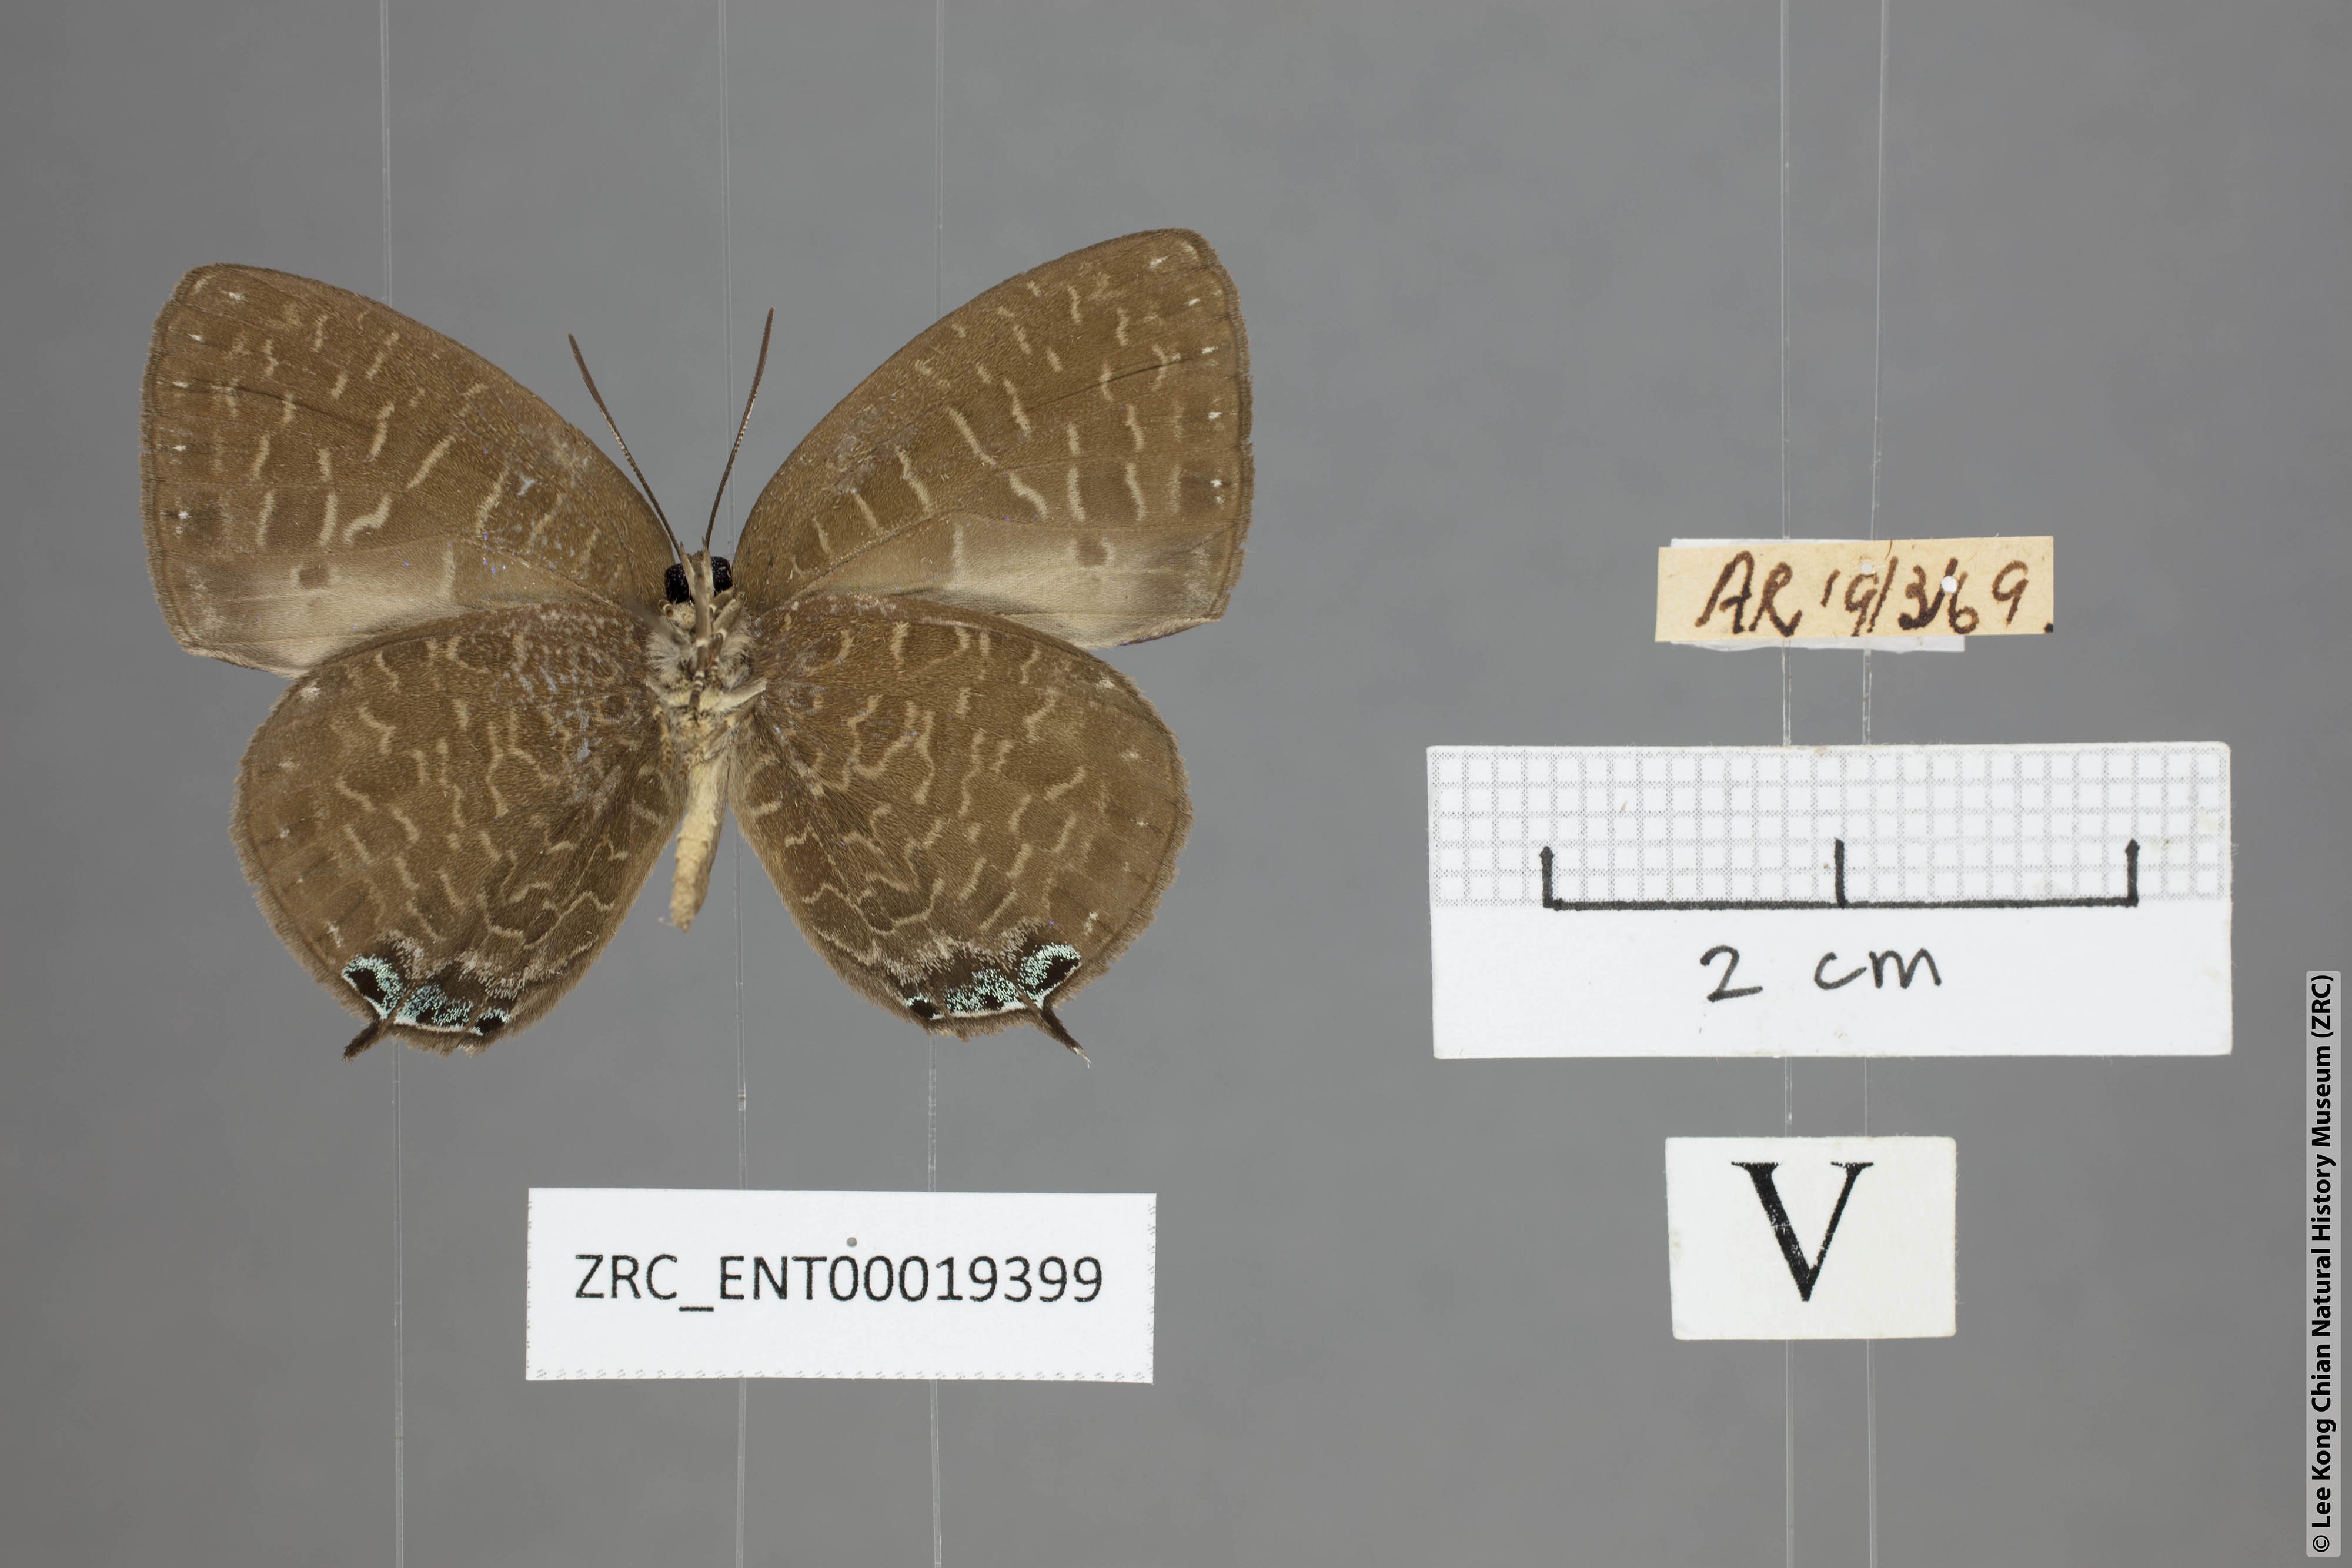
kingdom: Animalia
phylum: Arthropoda
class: Insecta
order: Lepidoptera
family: Lycaenidae
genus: Arhopala
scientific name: Arhopala democritus
